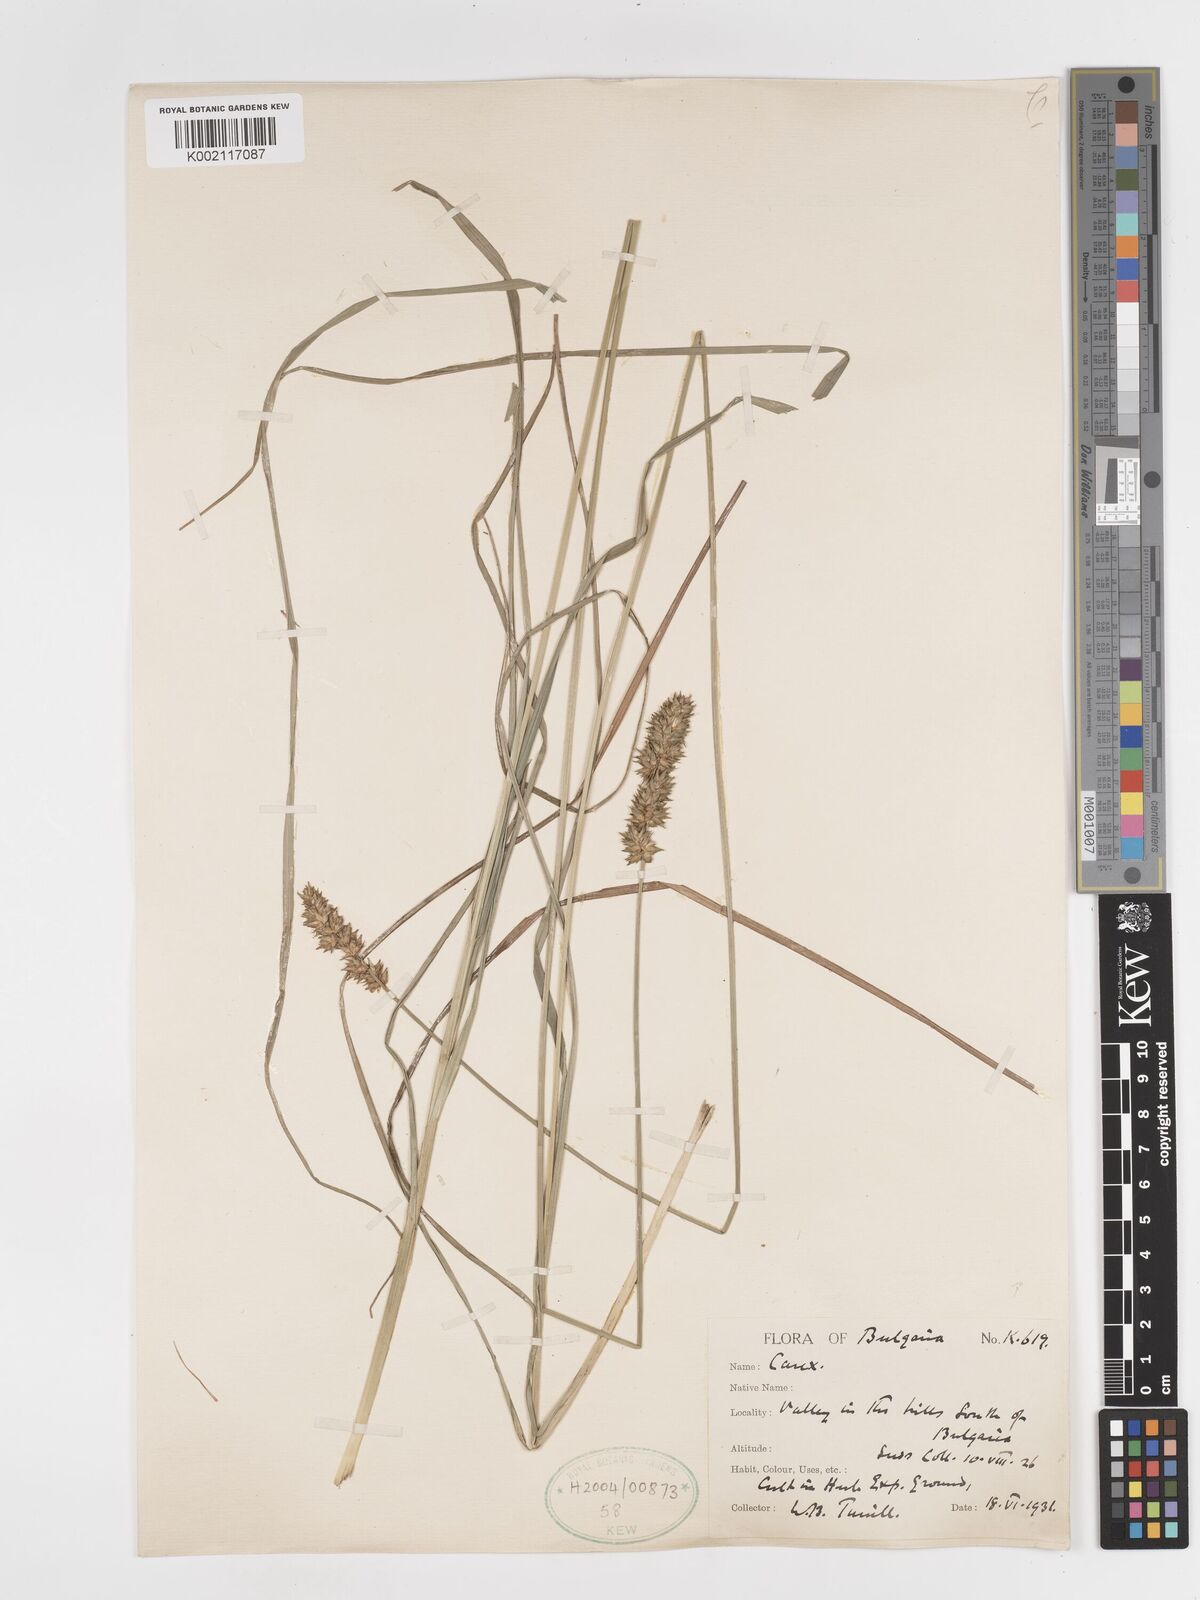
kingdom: Plantae
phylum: Tracheophyta
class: Liliopsida
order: Poales
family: Cyperaceae
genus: Carex
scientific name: Carex leersii
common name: Leers' sedge
